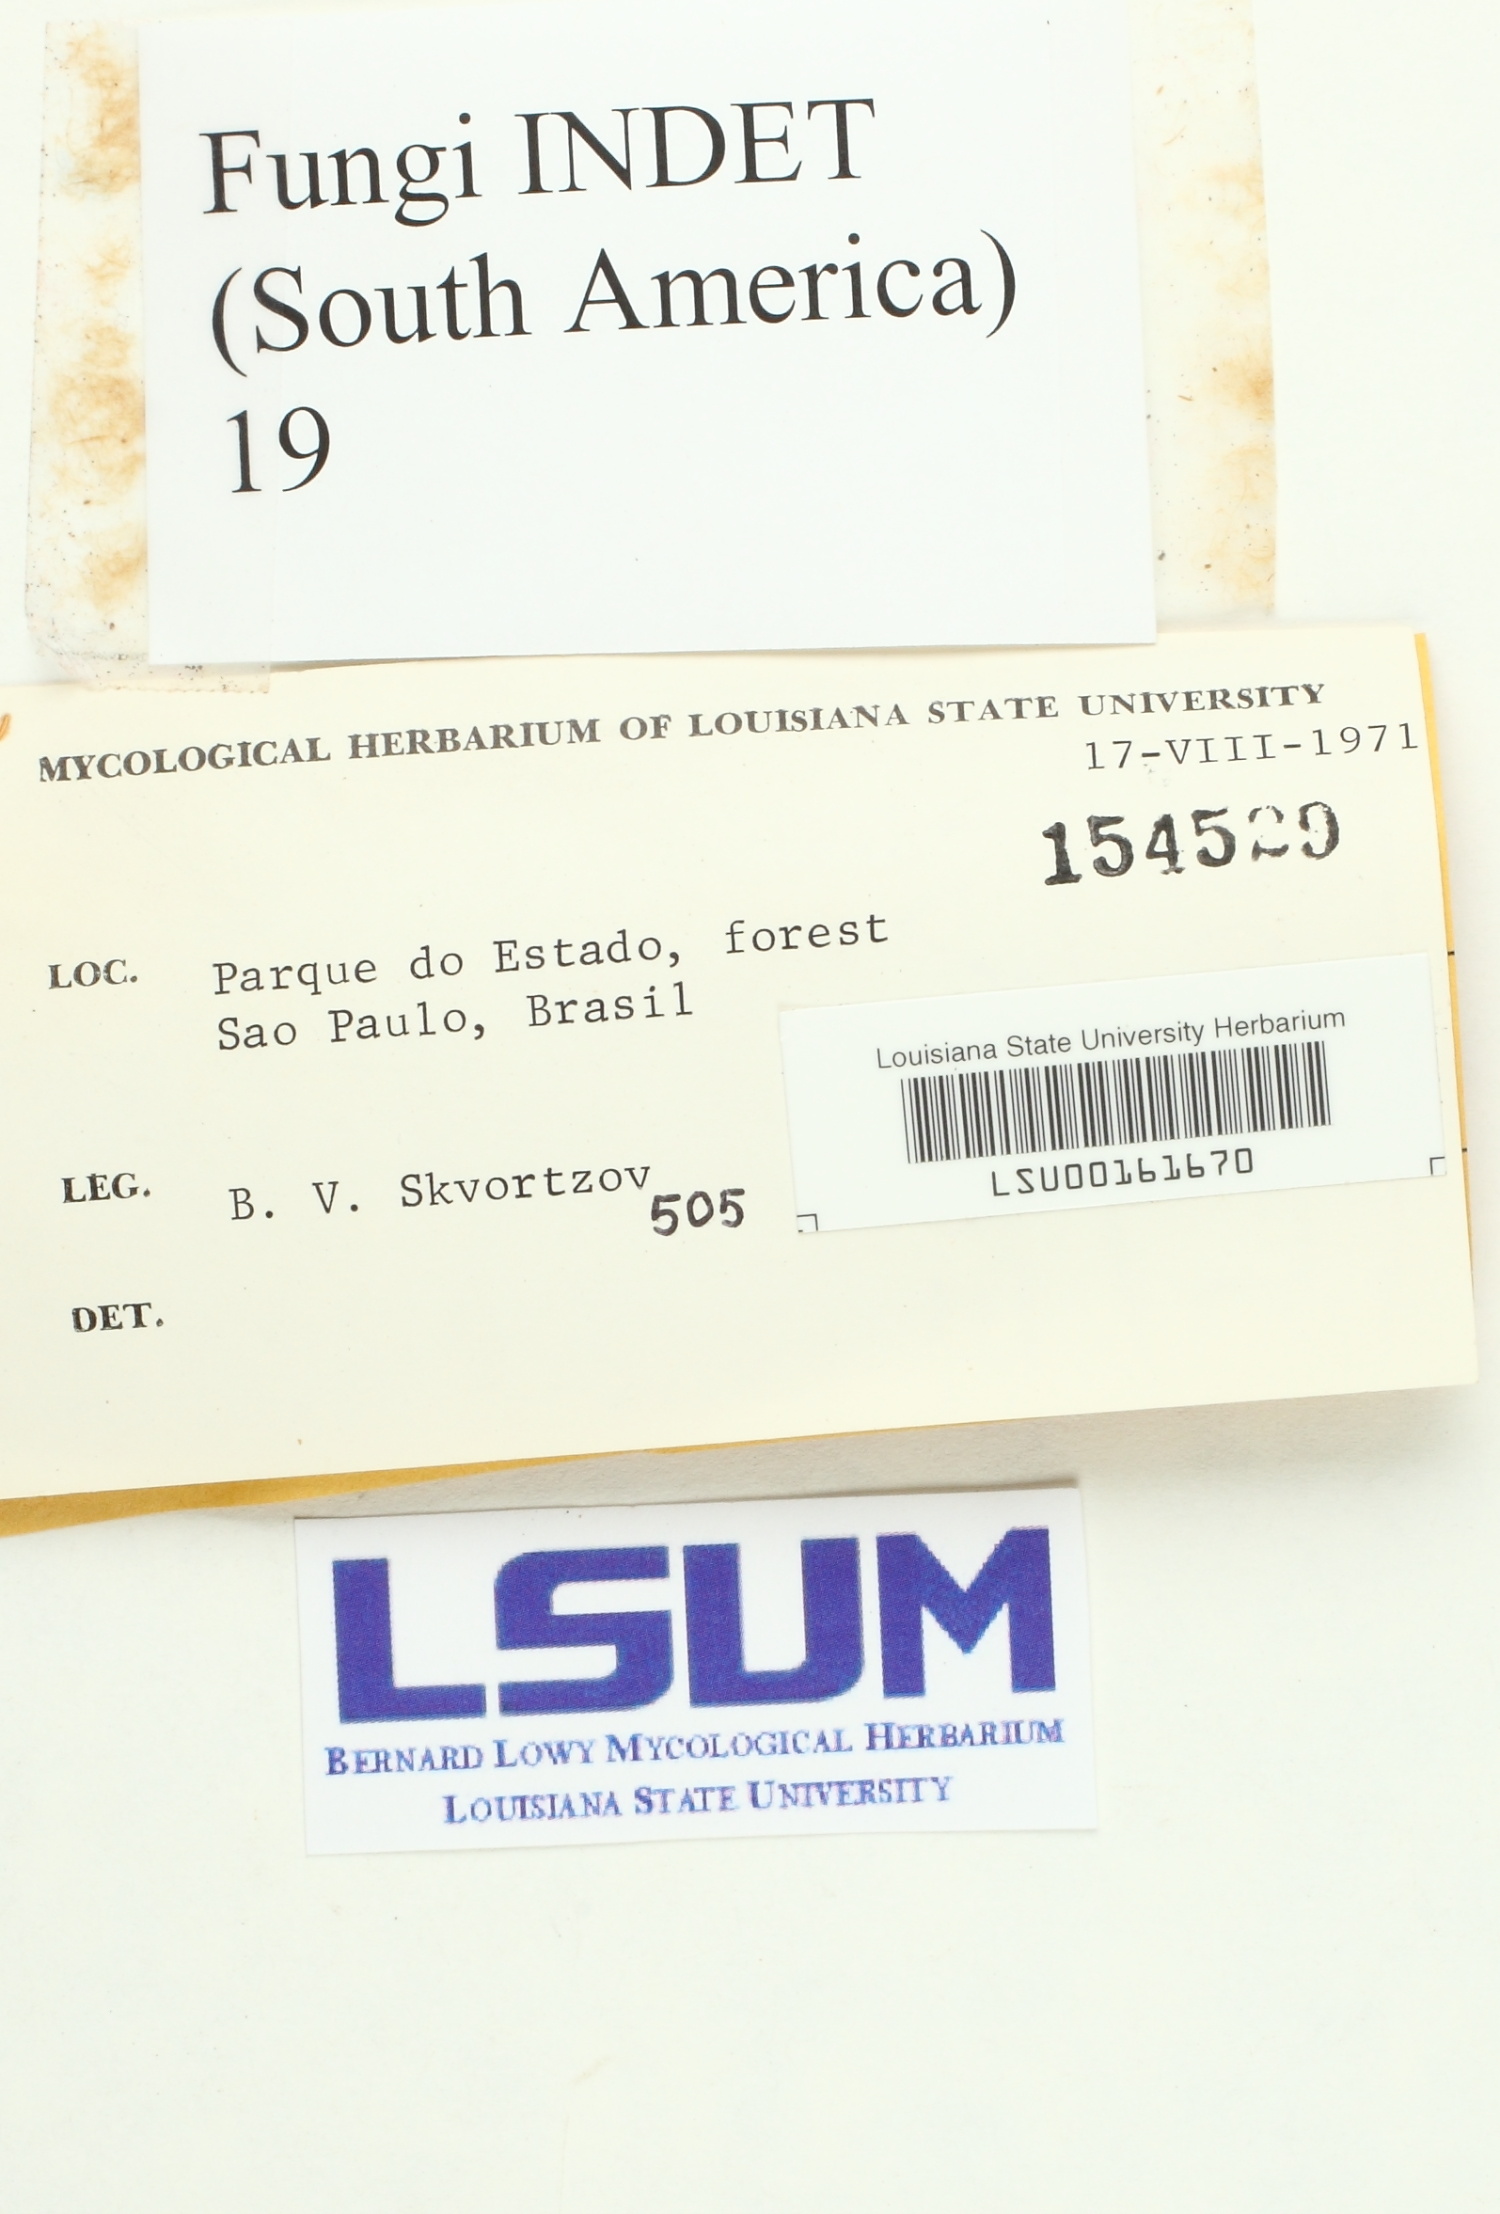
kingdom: Fungi
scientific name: Fungi
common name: Fungi
